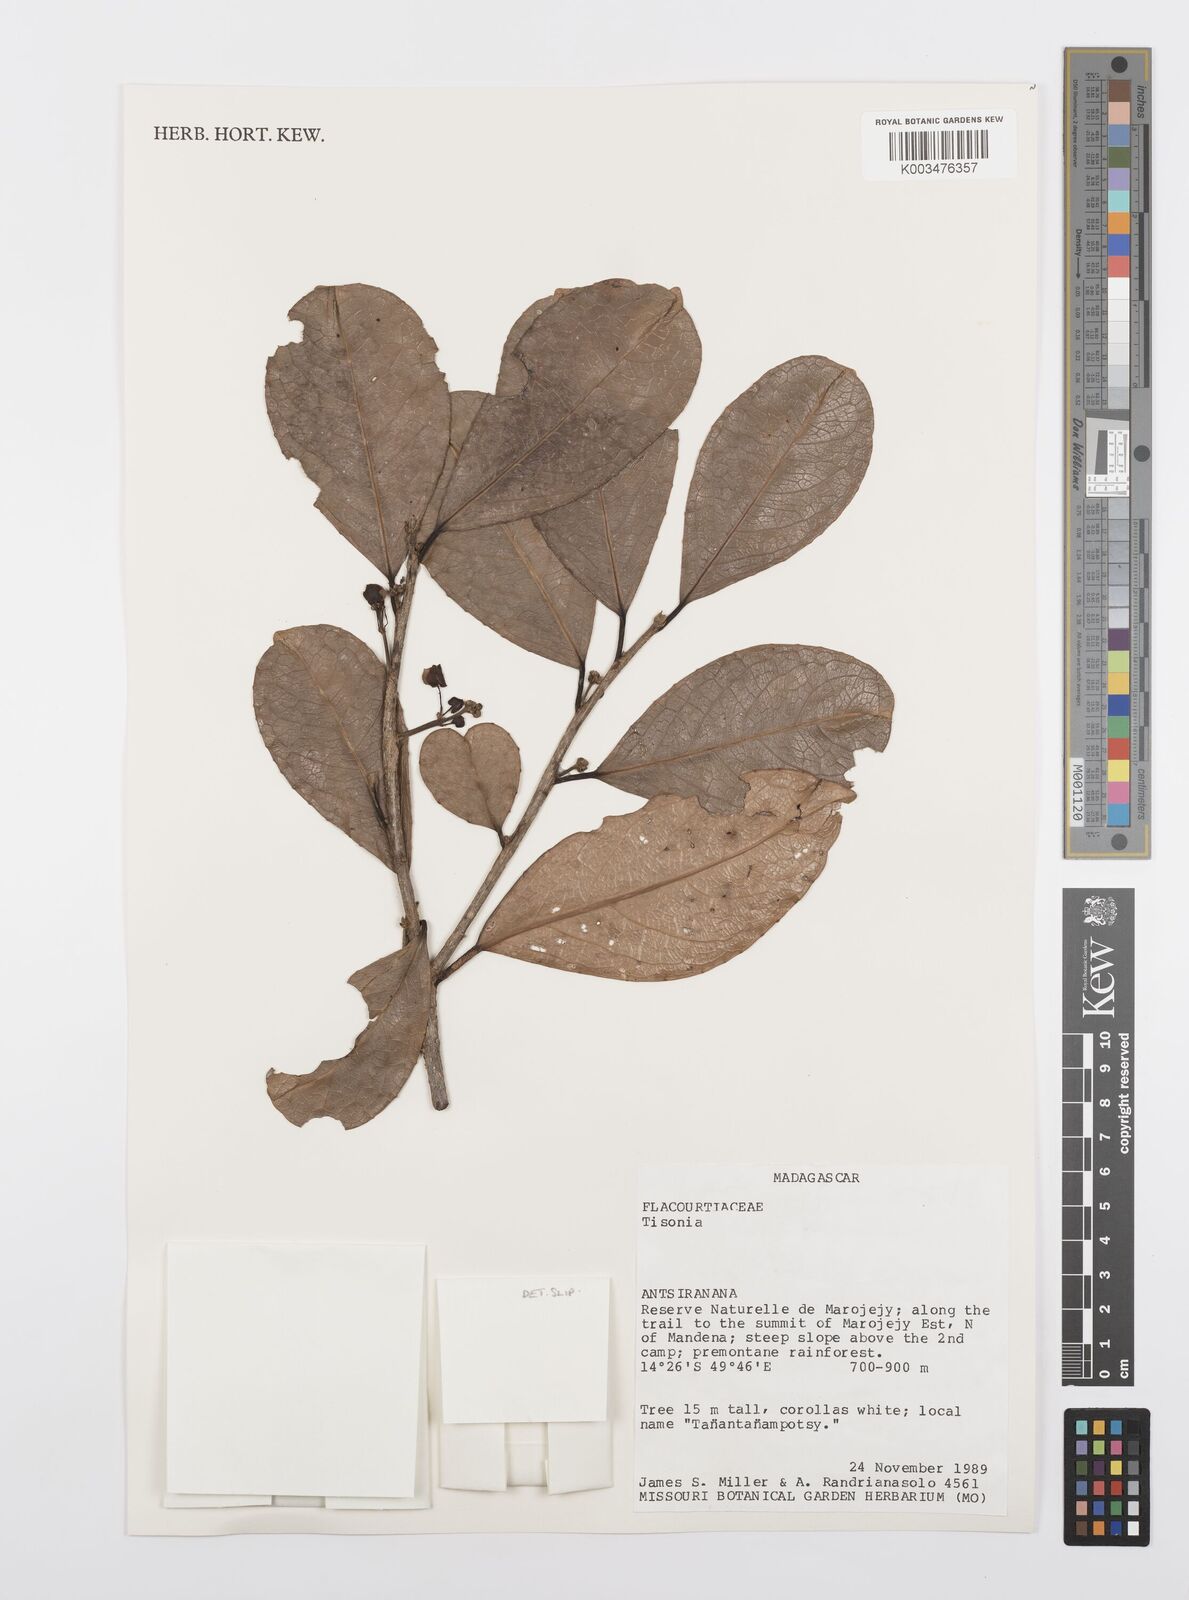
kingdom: Plantae
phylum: Tracheophyta
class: Magnoliopsida
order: Malpighiales
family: Salicaceae
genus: Tisonia
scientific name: Tisonia
